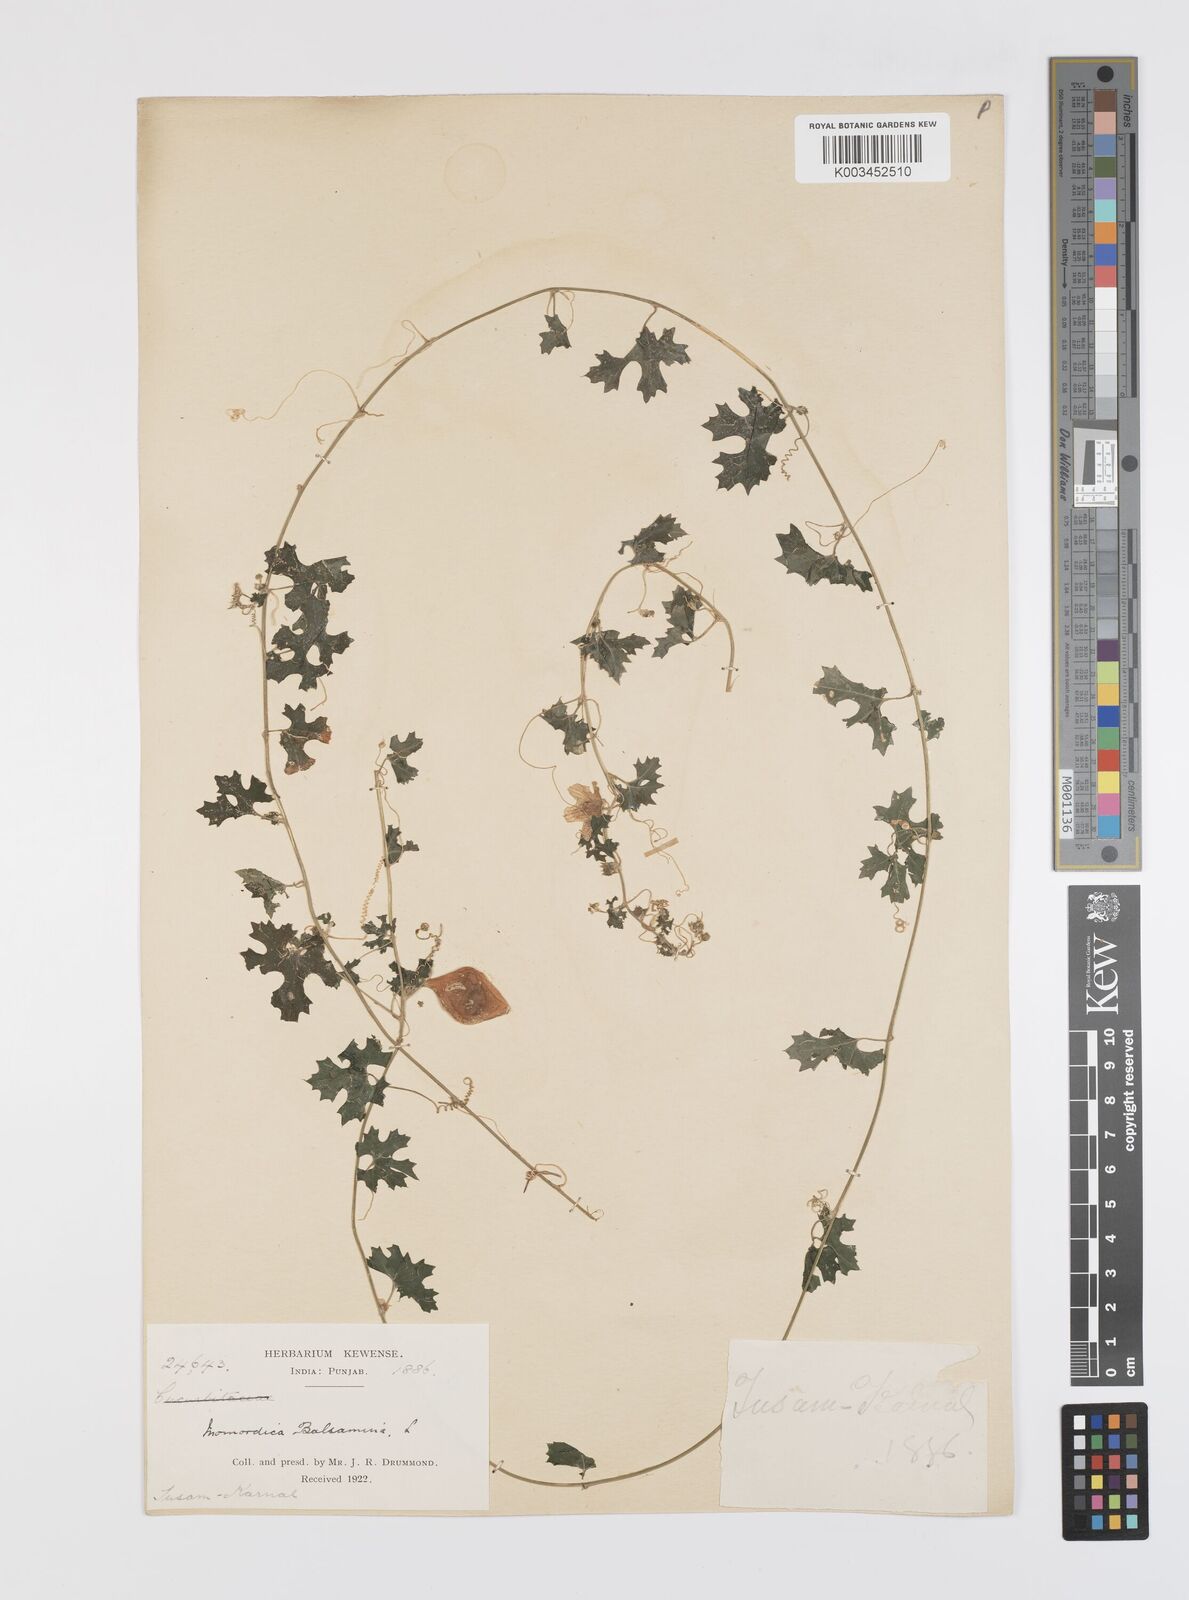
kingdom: Plantae
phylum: Tracheophyta
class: Magnoliopsida
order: Cucurbitales
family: Cucurbitaceae
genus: Momordica
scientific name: Momordica balsamina
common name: Southern balsampear
